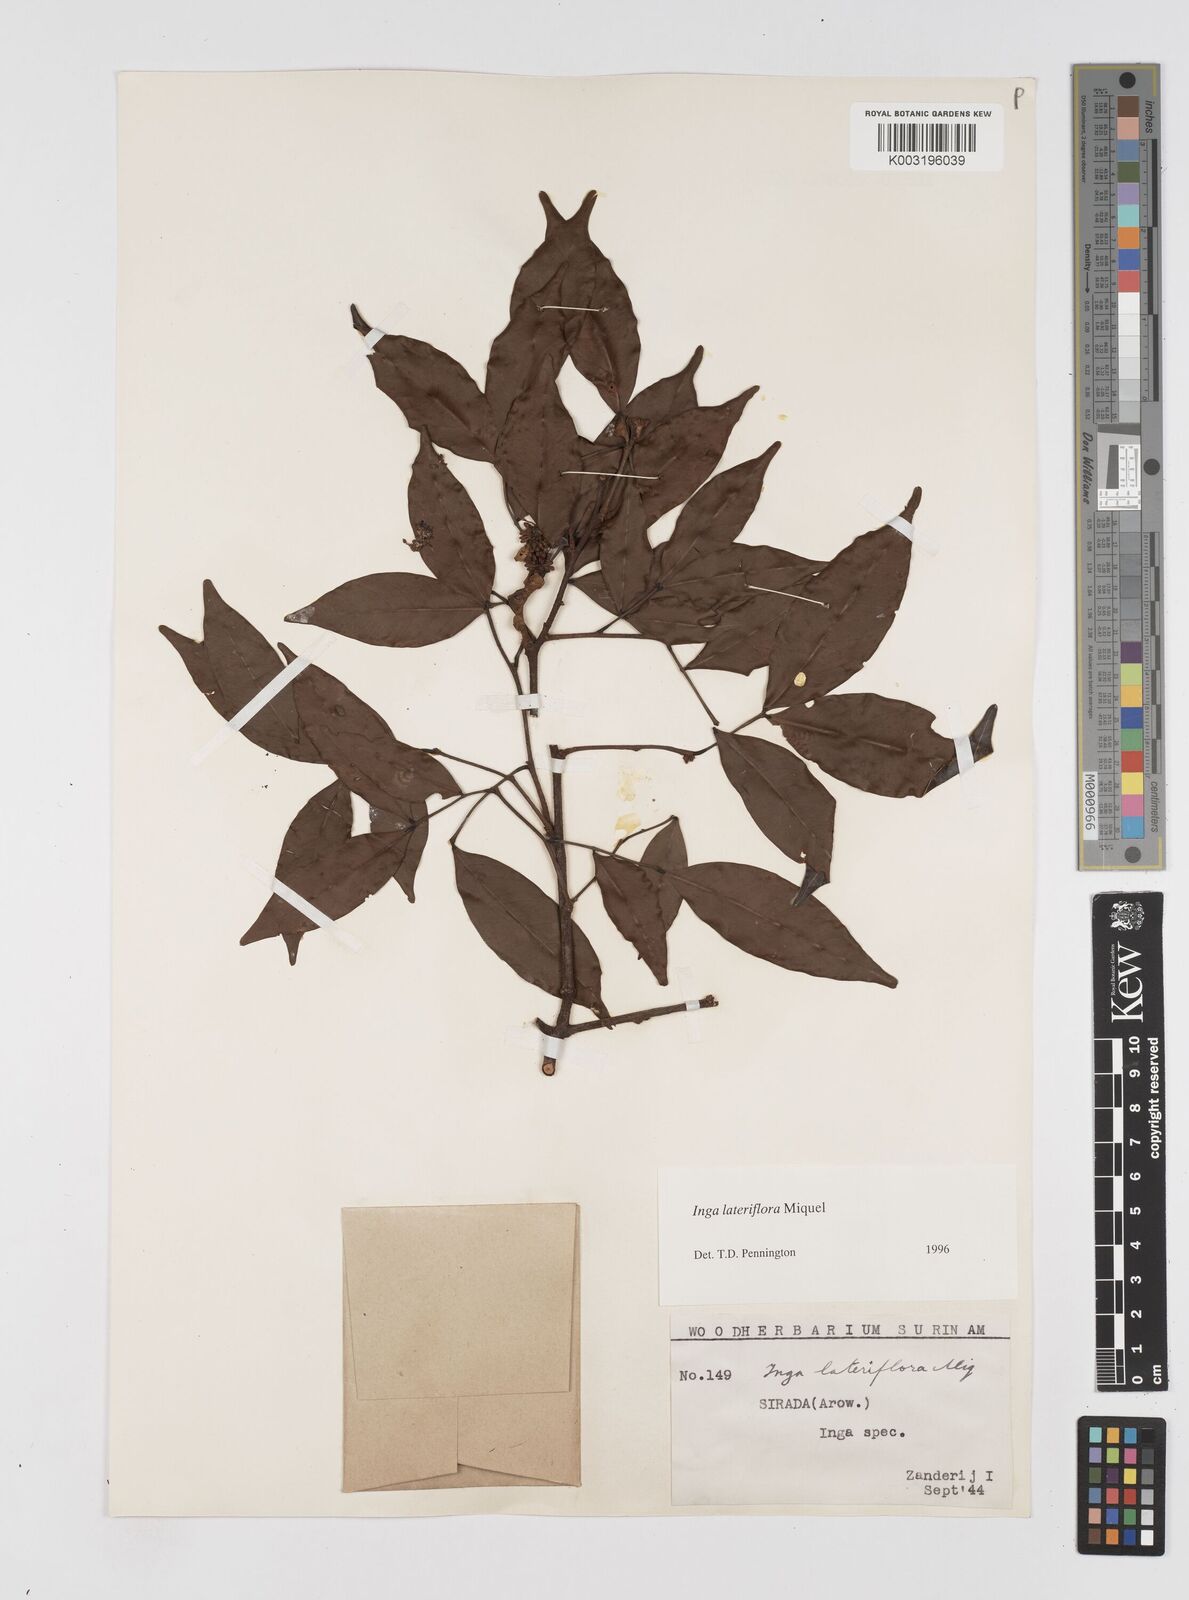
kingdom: Plantae
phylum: Tracheophyta
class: Magnoliopsida
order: Fabales
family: Fabaceae
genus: Inga
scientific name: Inga lateriflora
